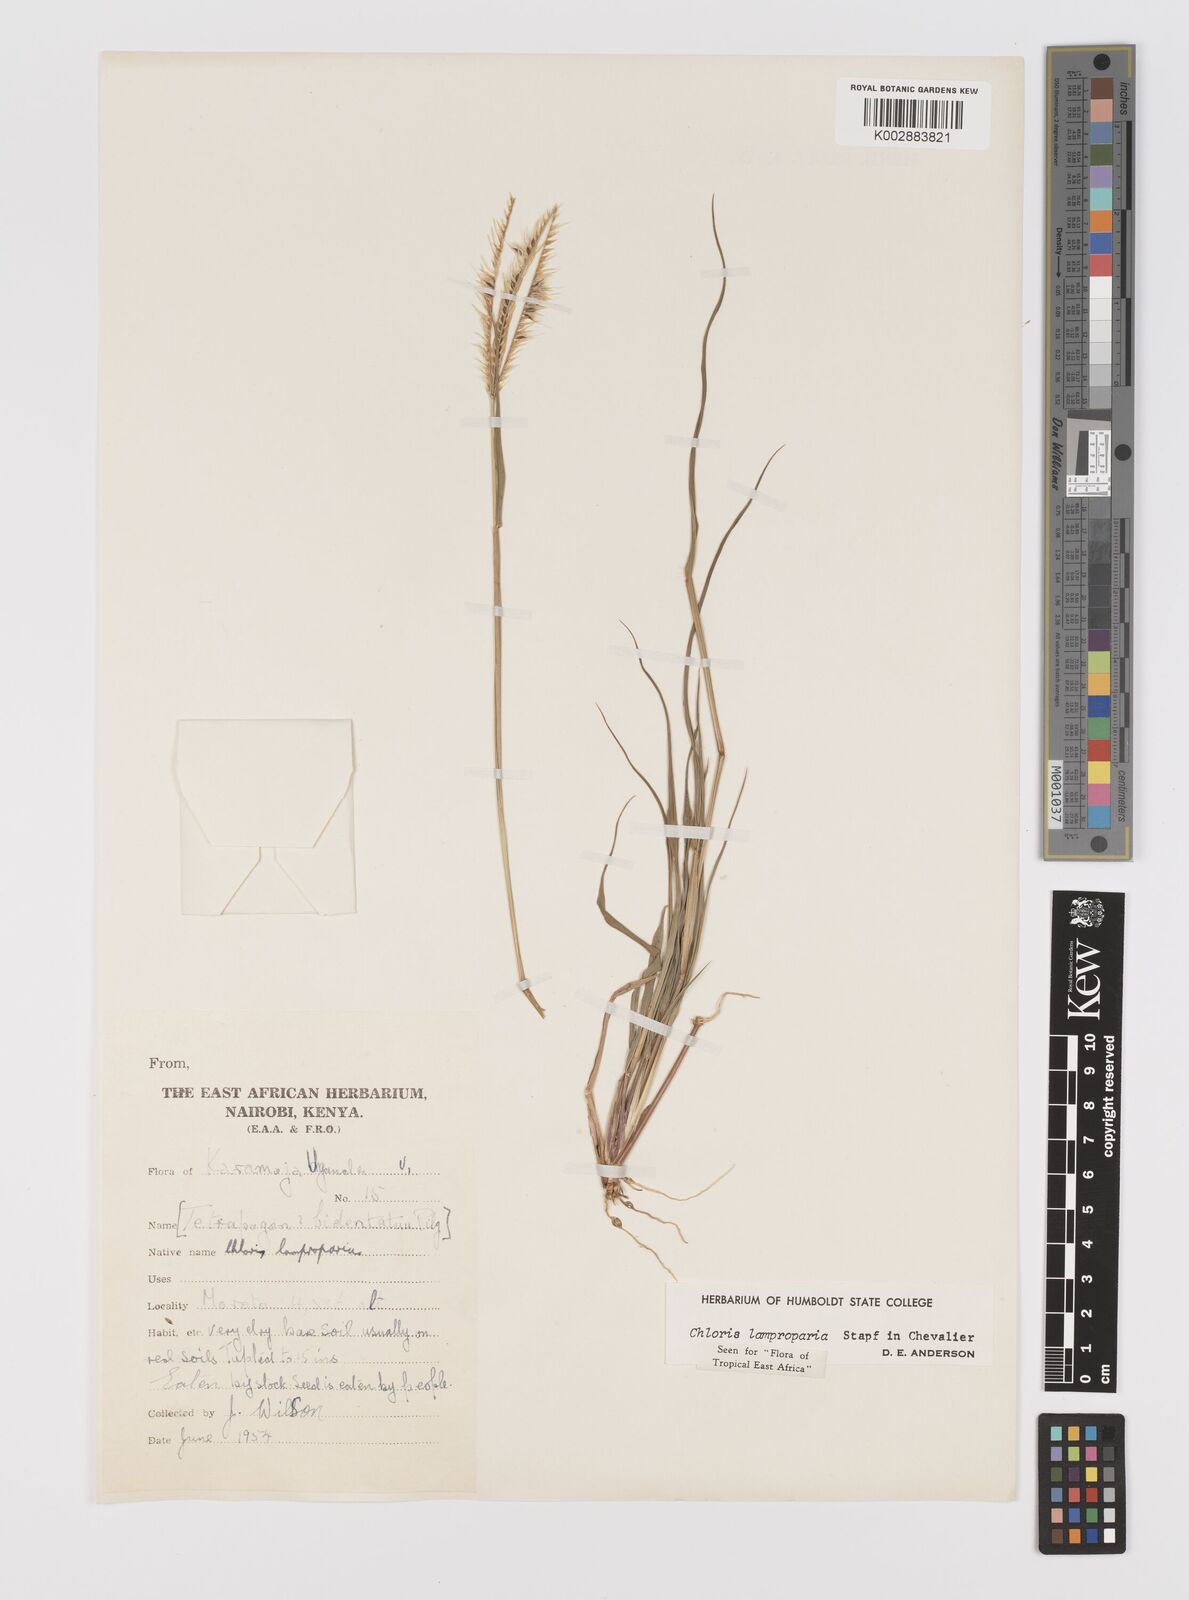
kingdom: Plantae
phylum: Tracheophyta
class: Liliopsida
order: Poales
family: Poaceae
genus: Stapfochloa
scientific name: Stapfochloa lamproparia
